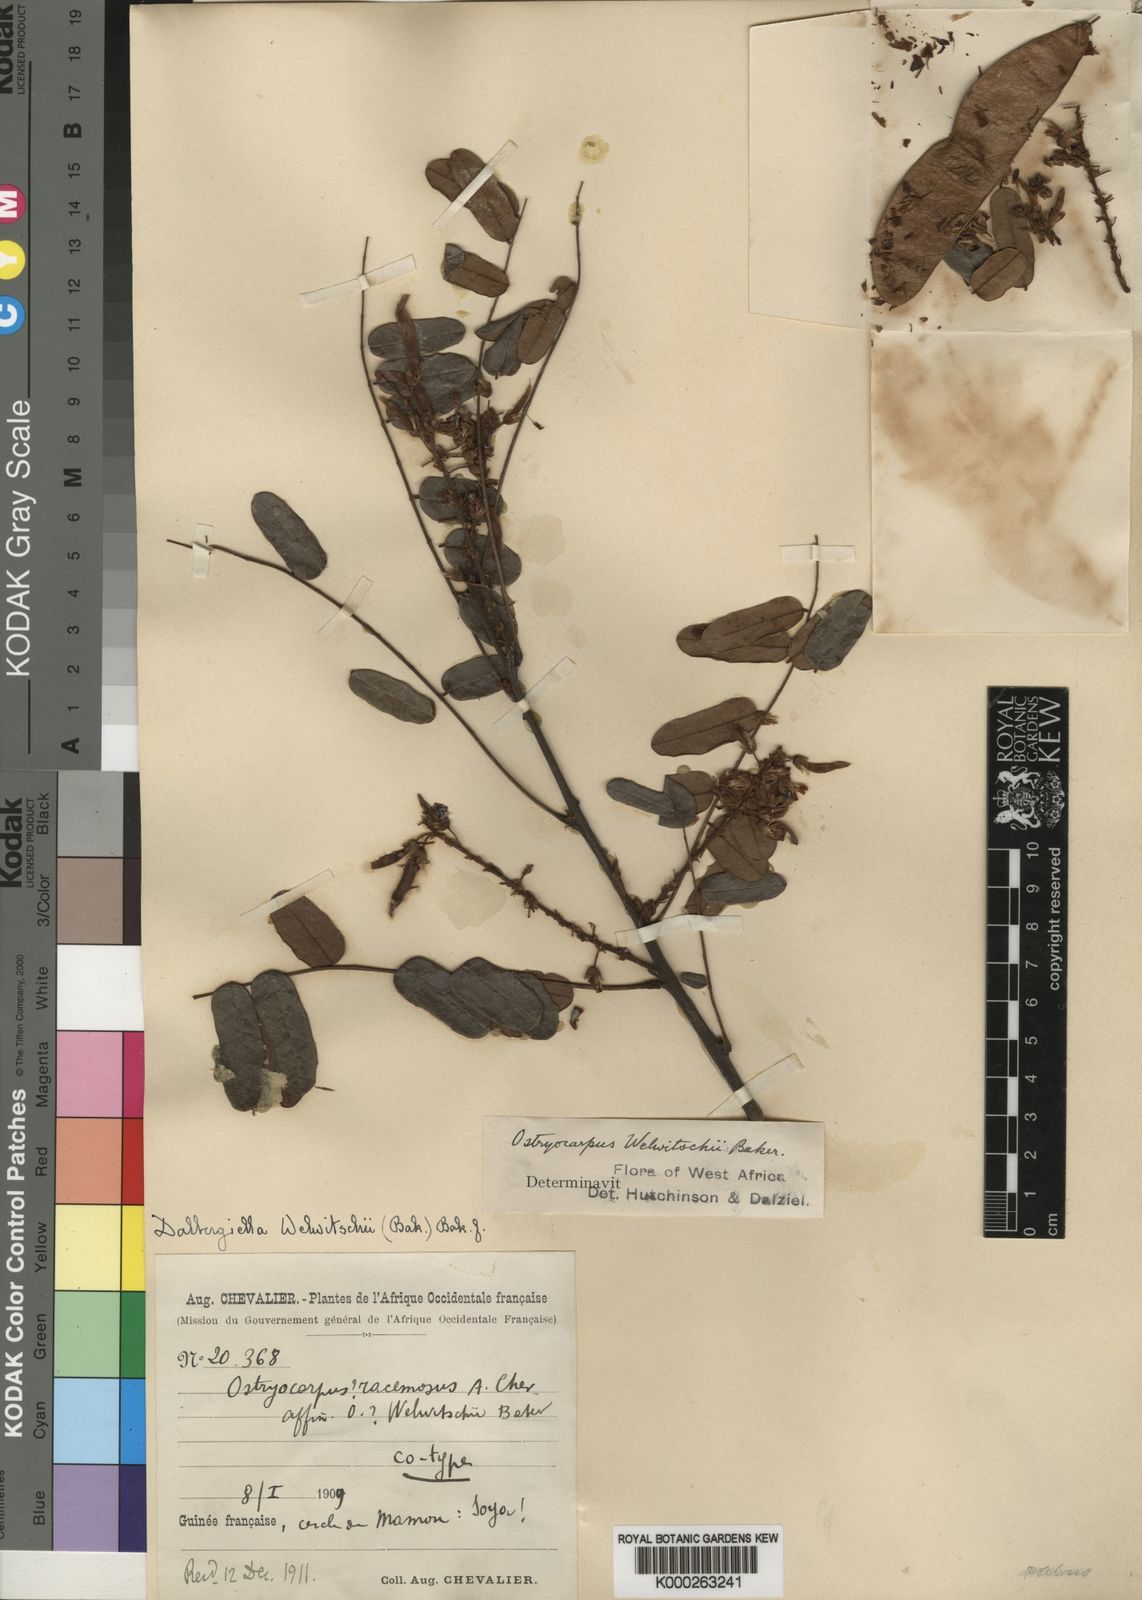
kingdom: Plantae
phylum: Tracheophyta
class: Magnoliopsida
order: Fabales
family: Fabaceae
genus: Dalbergiella
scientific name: Dalbergiella welwitschii
